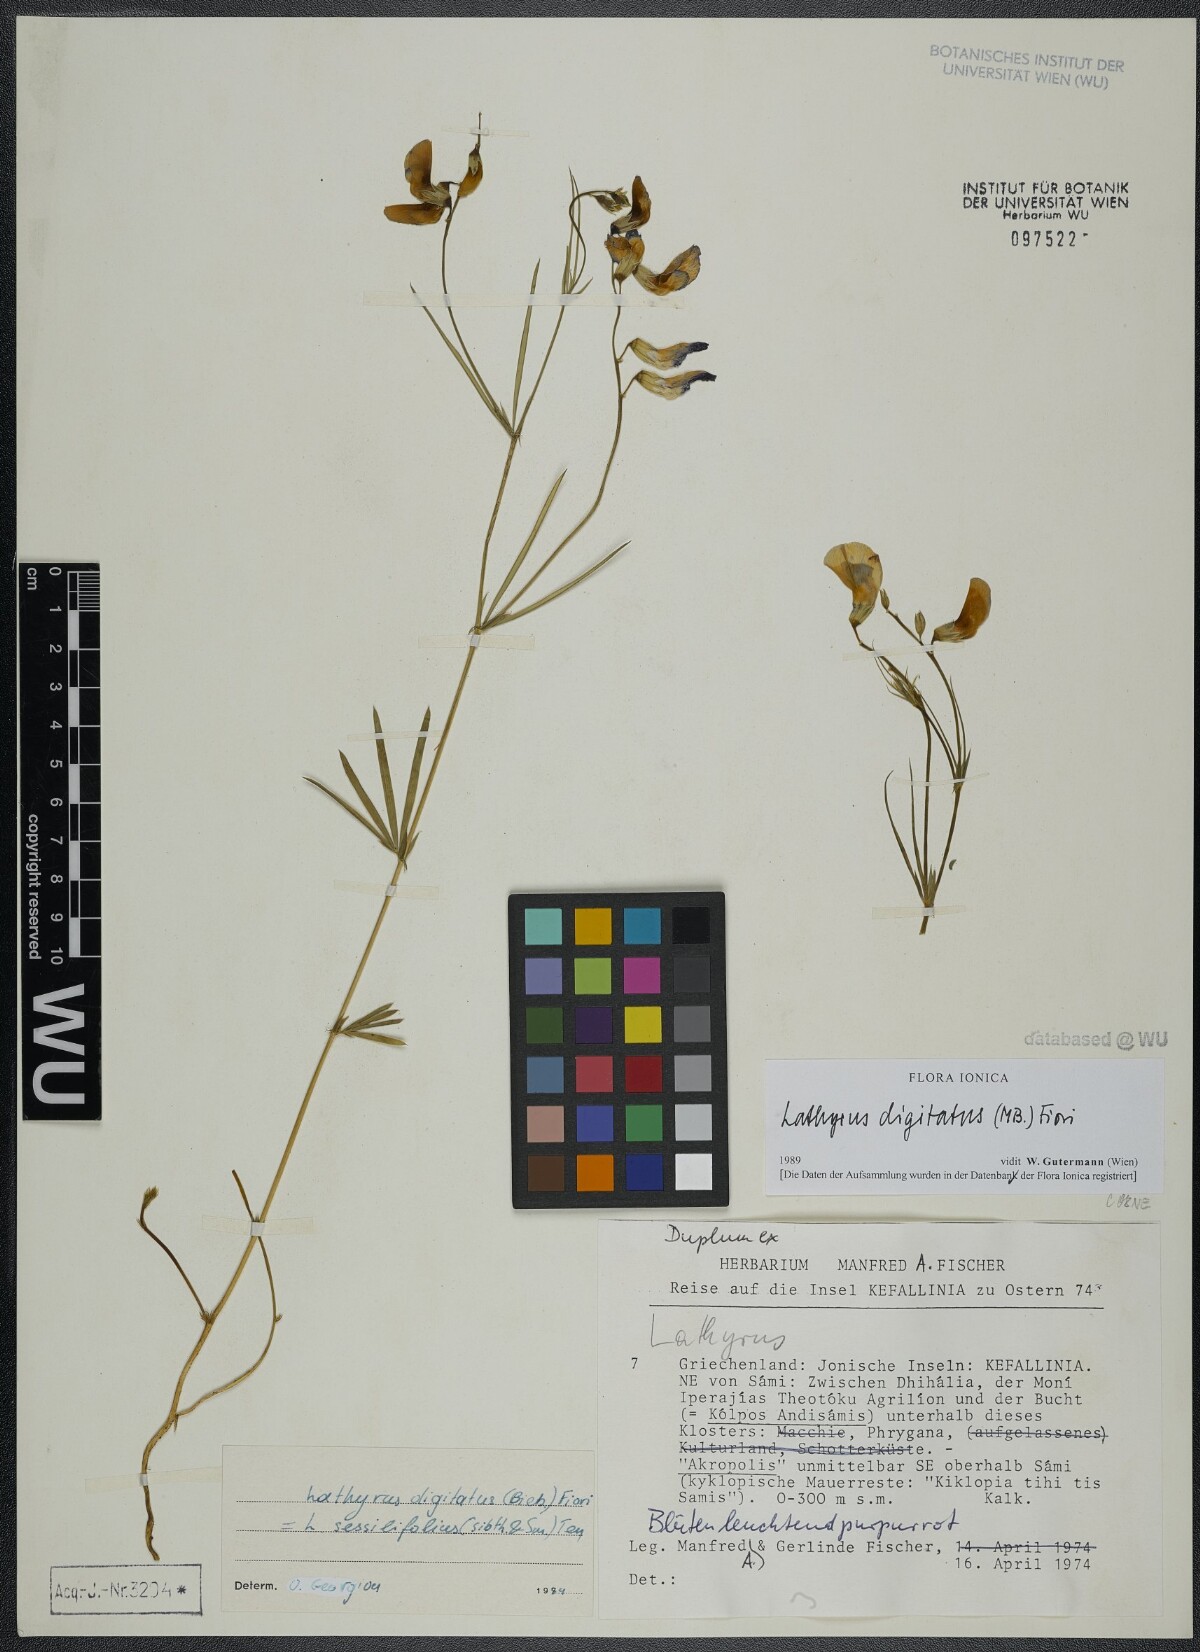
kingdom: Plantae
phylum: Tracheophyta
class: Magnoliopsida
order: Fabales
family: Fabaceae
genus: Lathyrus
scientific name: Lathyrus digitatus
